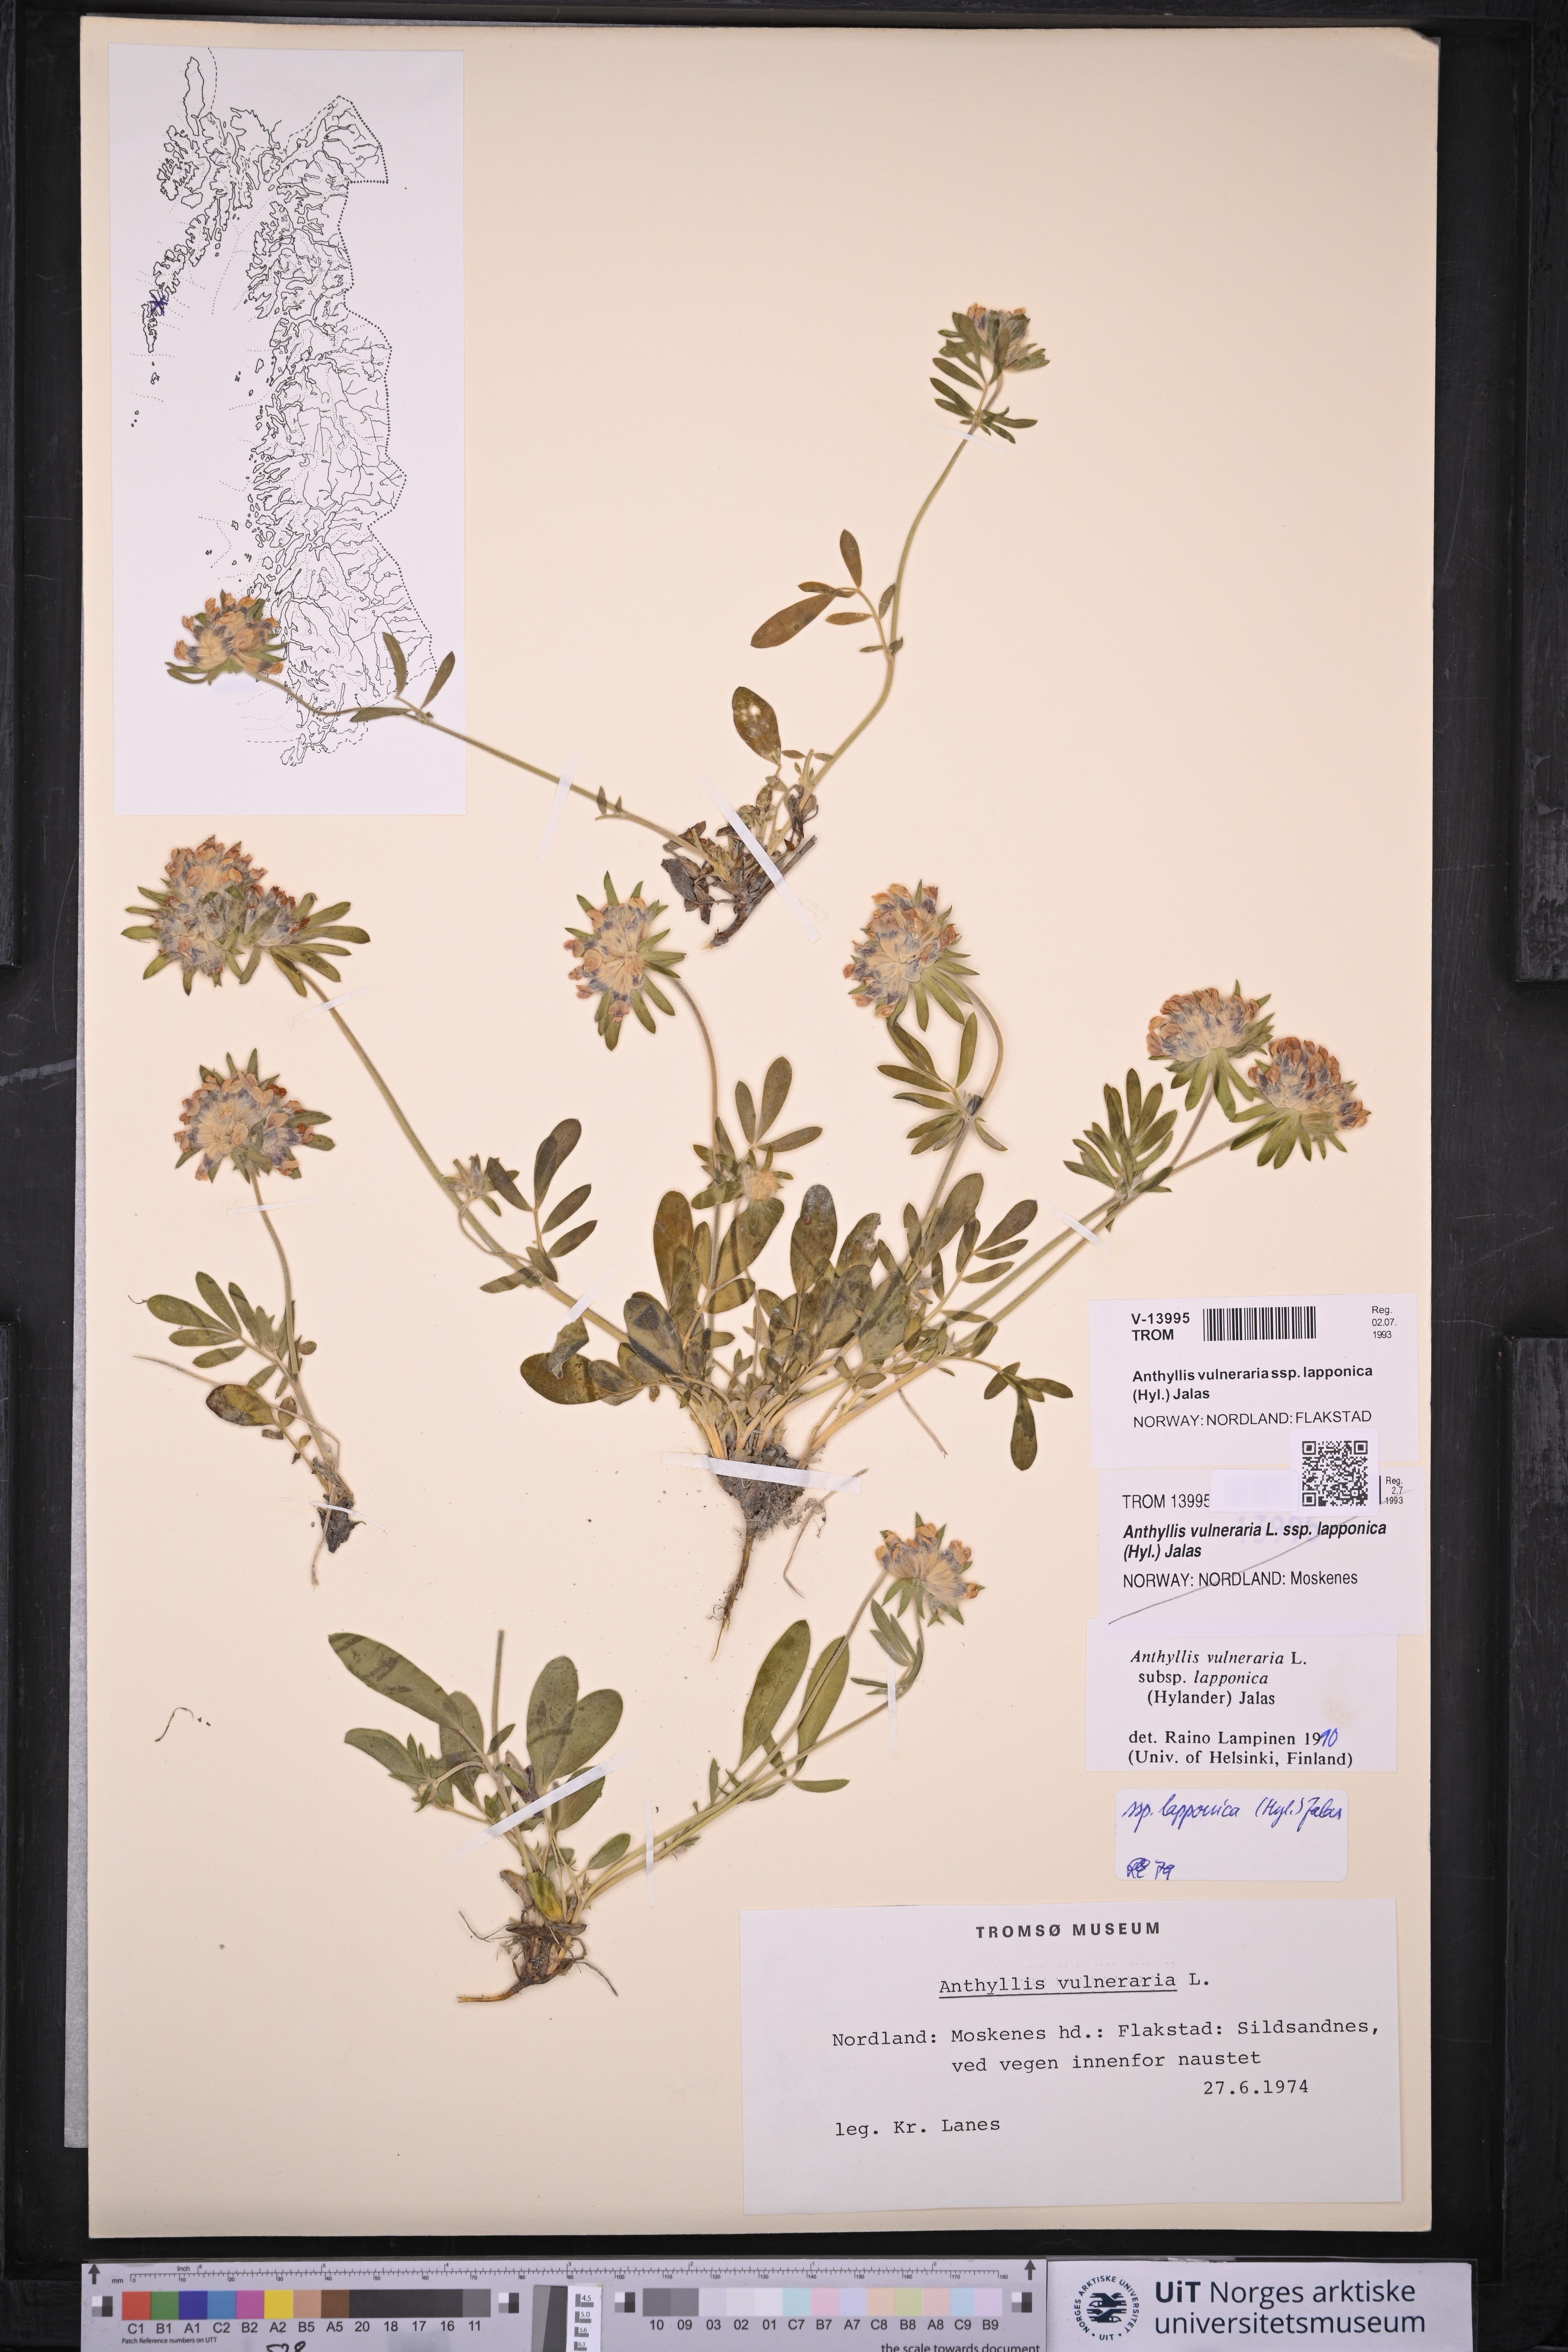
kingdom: Plantae
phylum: Tracheophyta
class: Magnoliopsida
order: Fabales
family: Fabaceae
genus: Anthyllis
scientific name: Anthyllis vulneraria
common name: Kidney vetch
